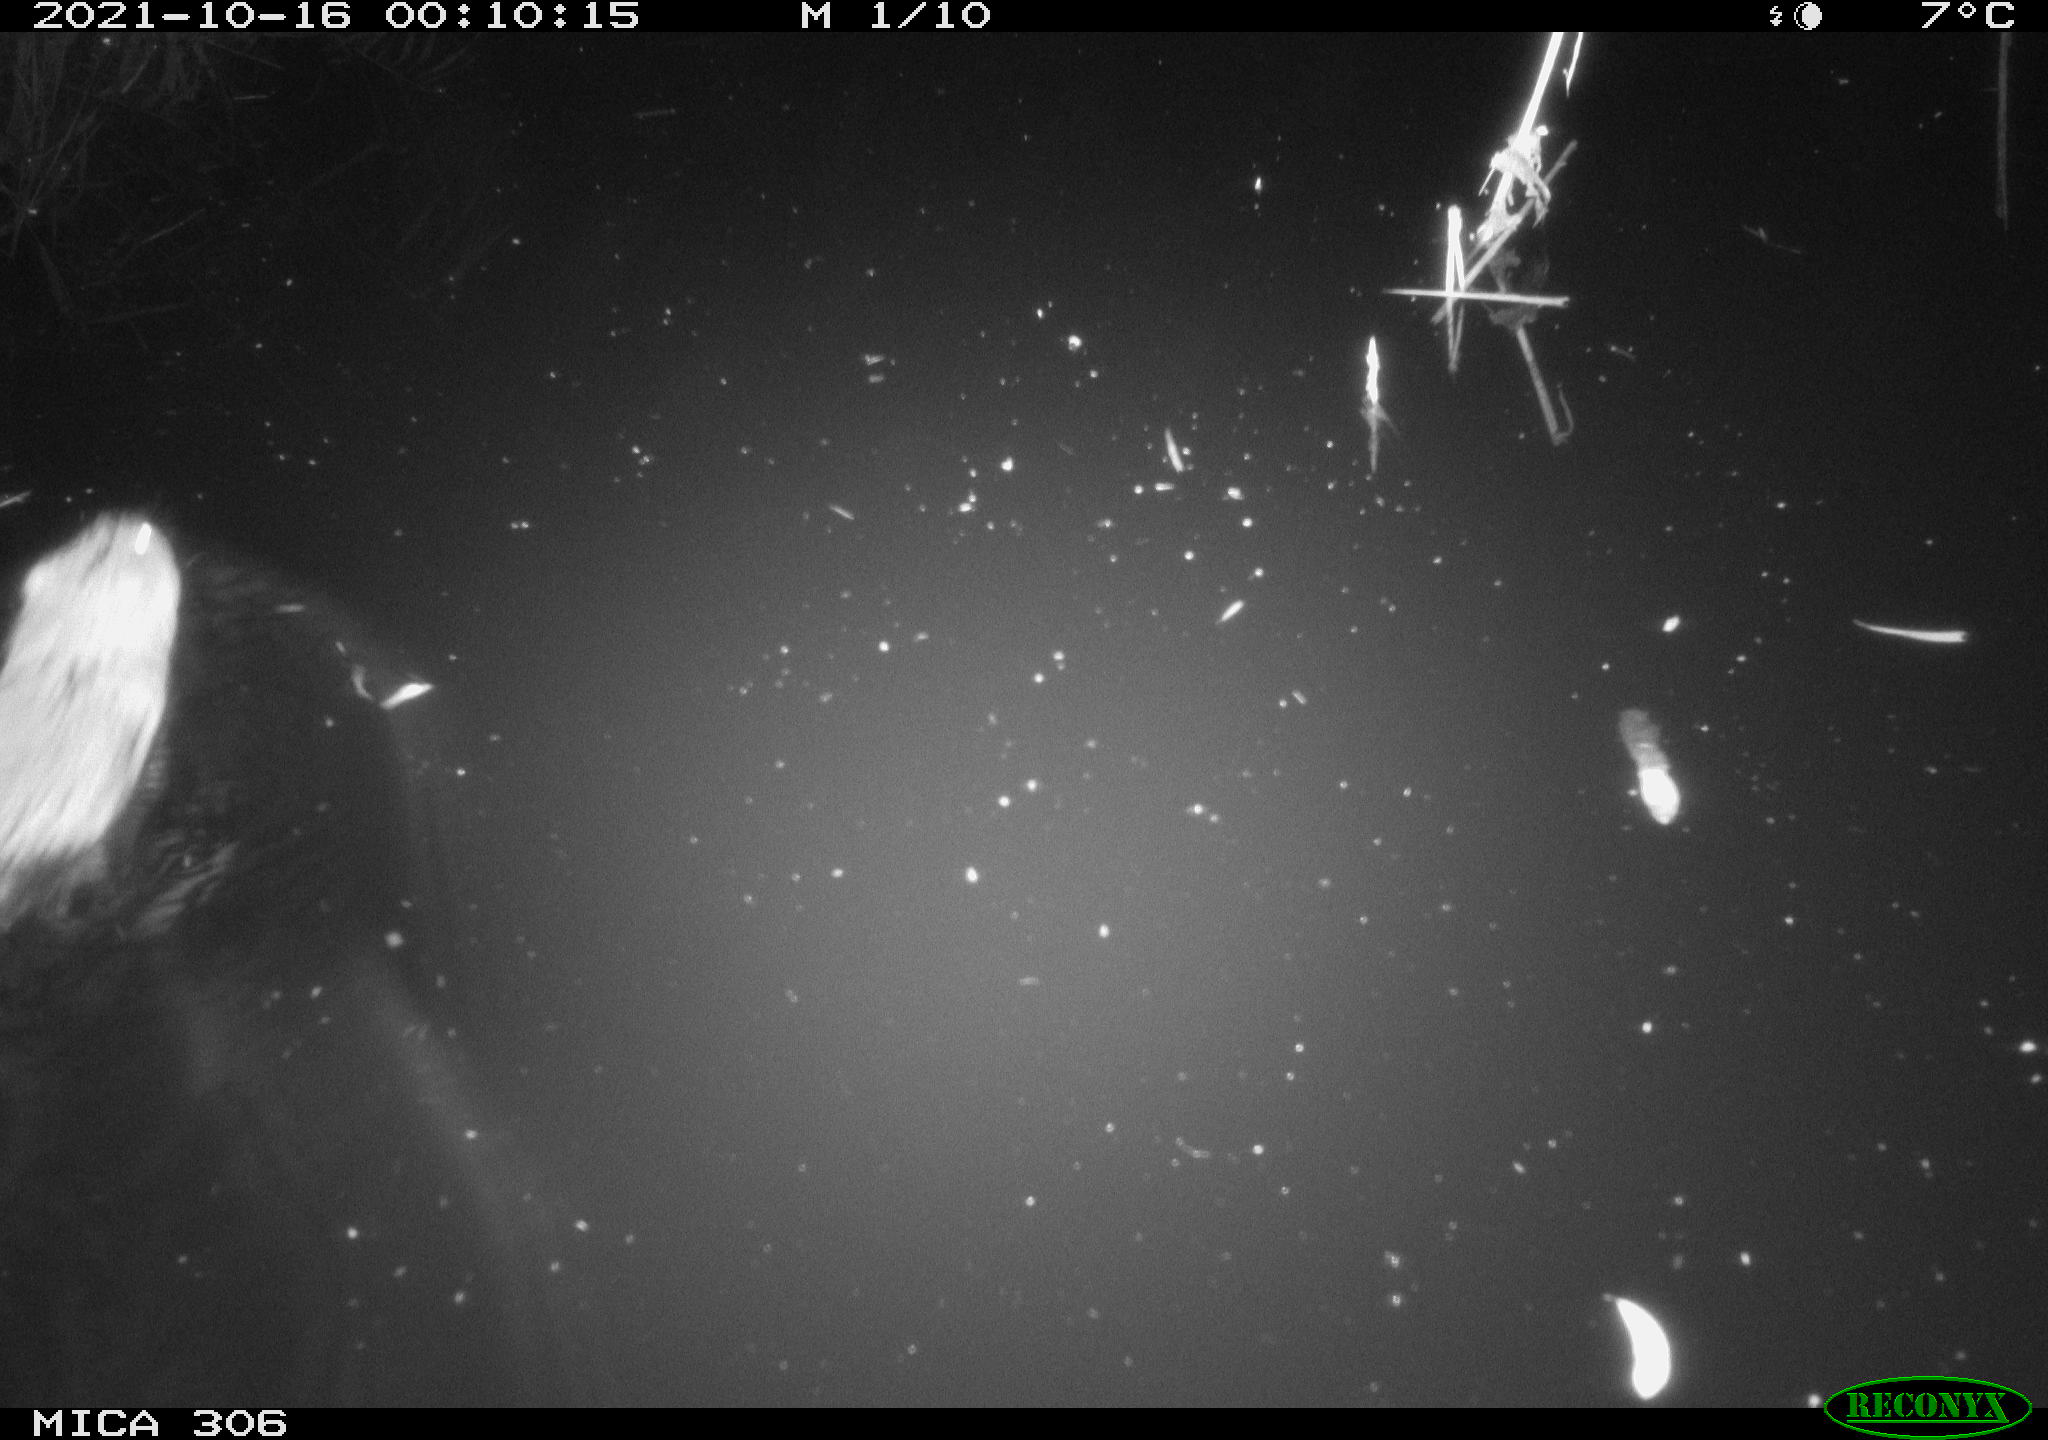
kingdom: Animalia
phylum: Chordata
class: Mammalia
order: Rodentia
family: Cricetidae
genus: Ondatra
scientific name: Ondatra zibethicus
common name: Muskrat
